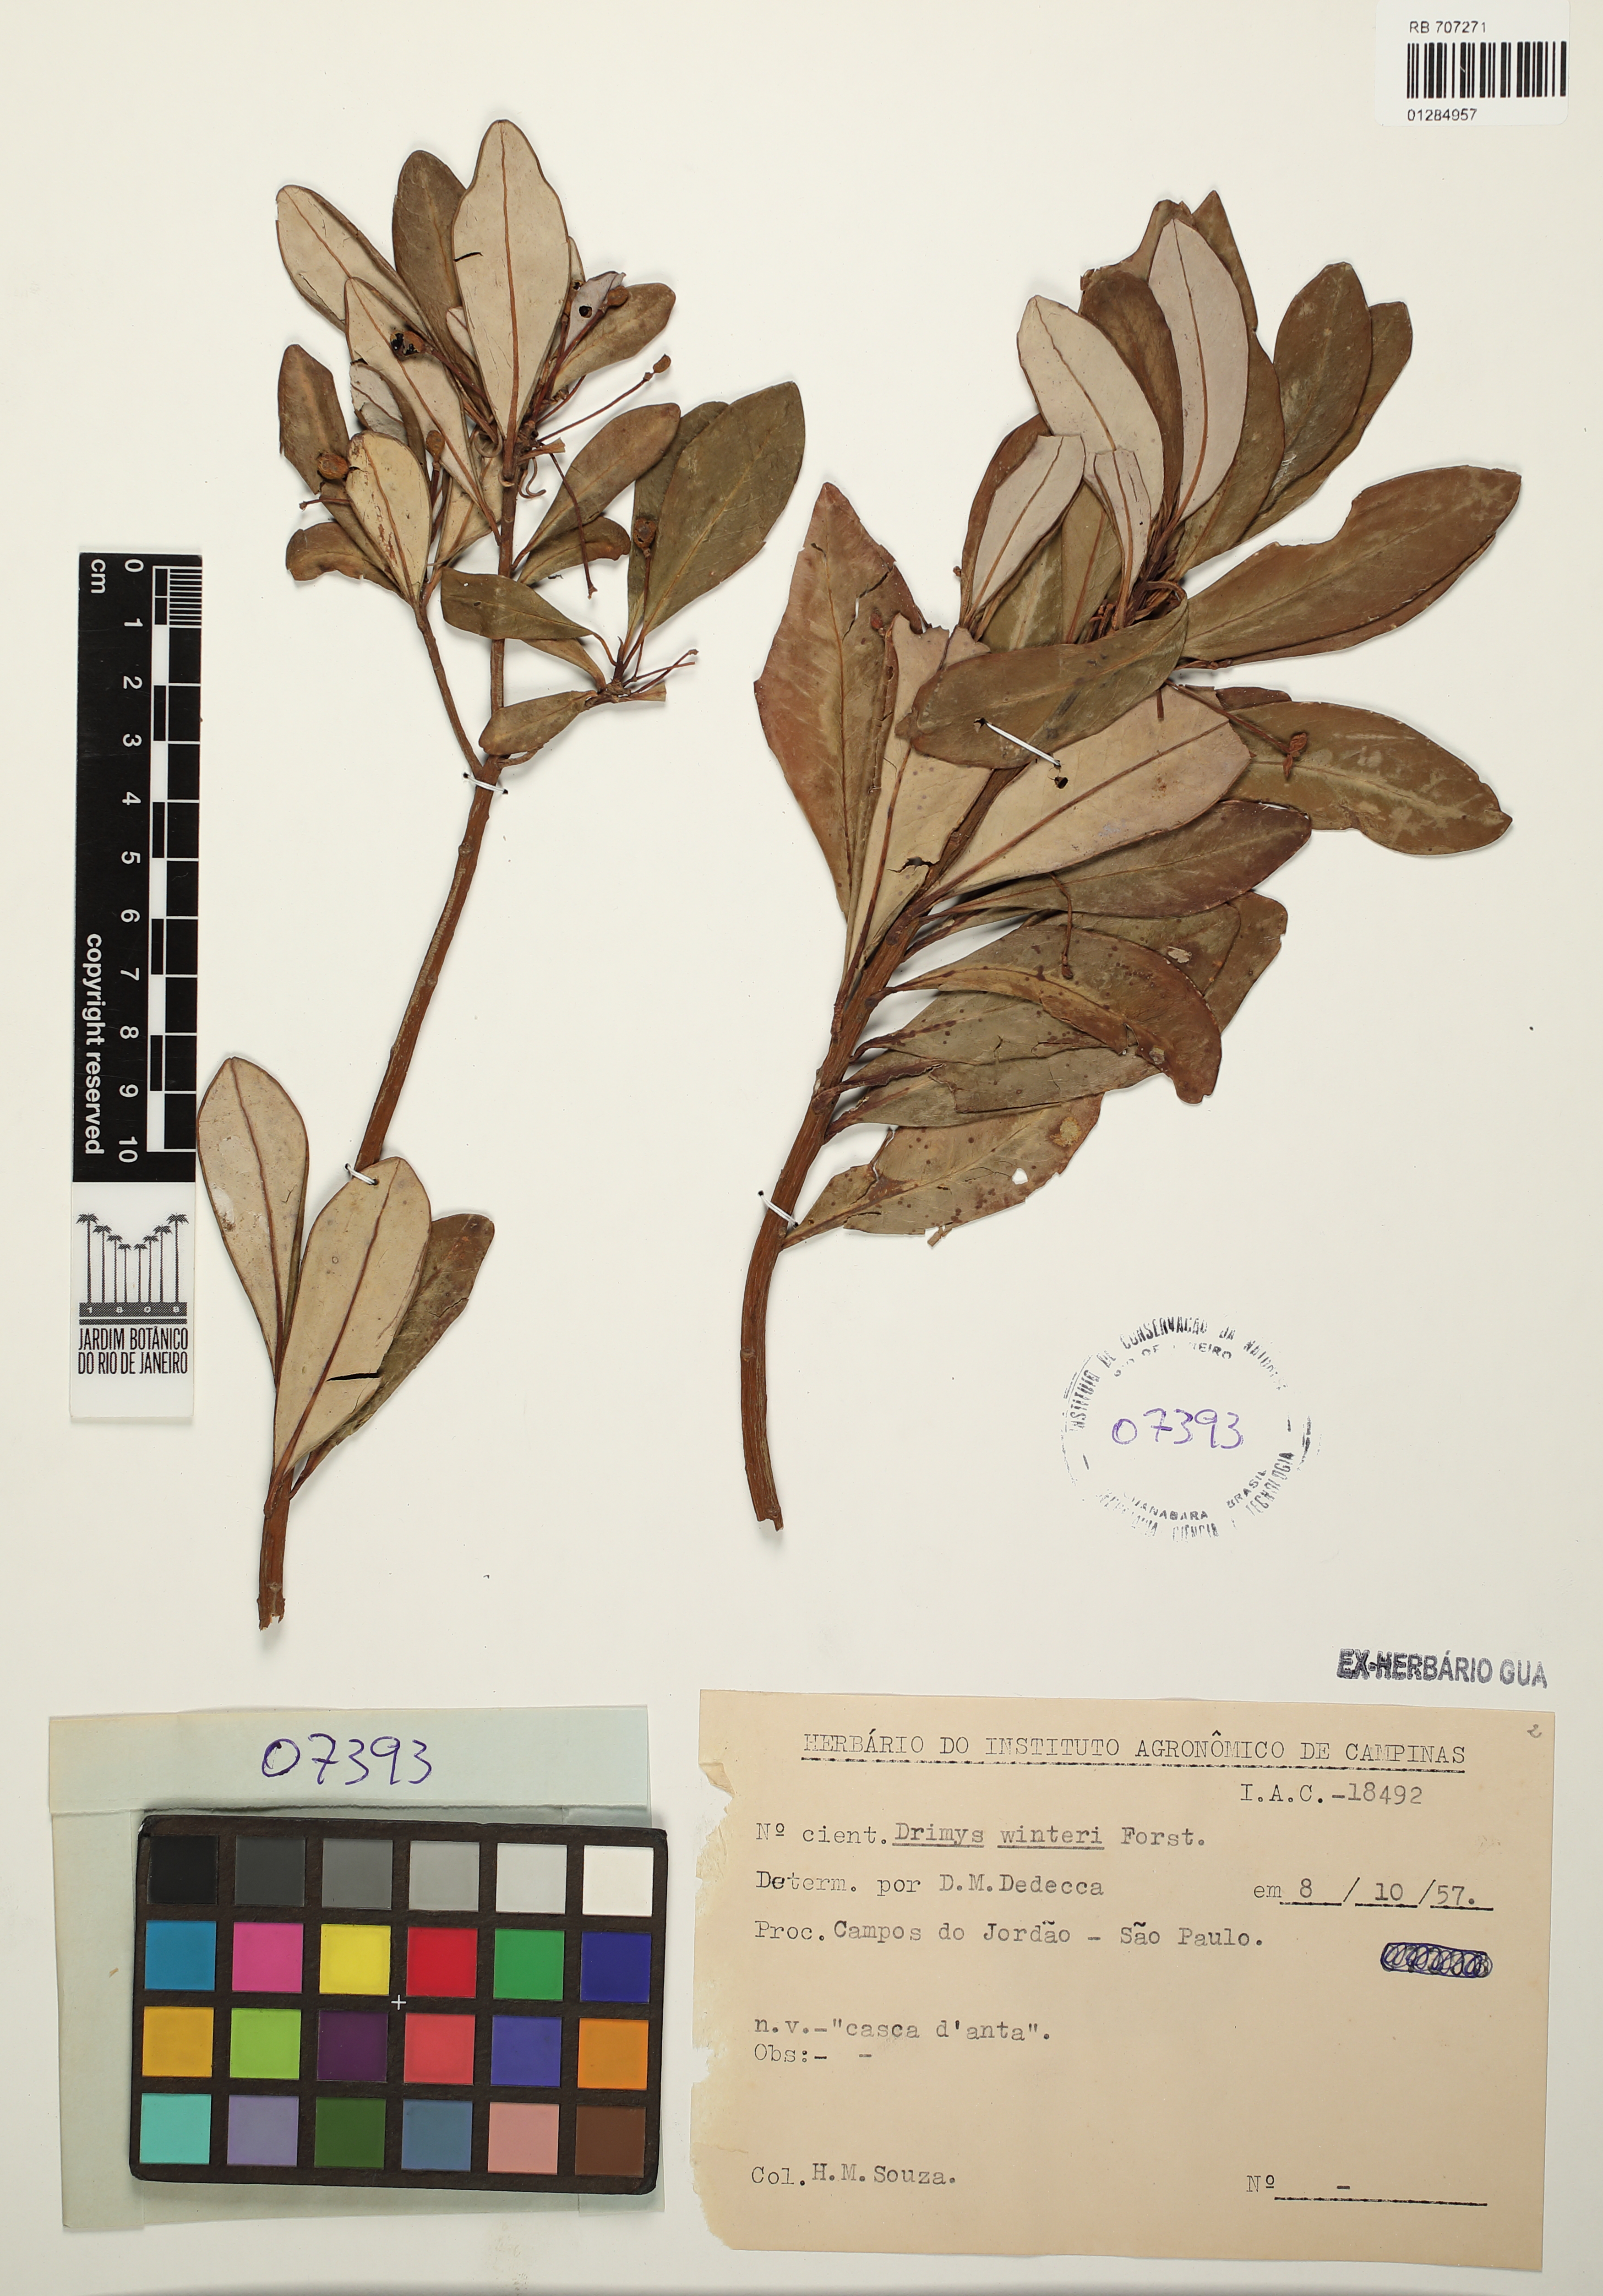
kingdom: Plantae
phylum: Tracheophyta
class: Magnoliopsida
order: Canellales
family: Winteraceae
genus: Drimys
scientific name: Drimys winteri
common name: Winter's-bark
